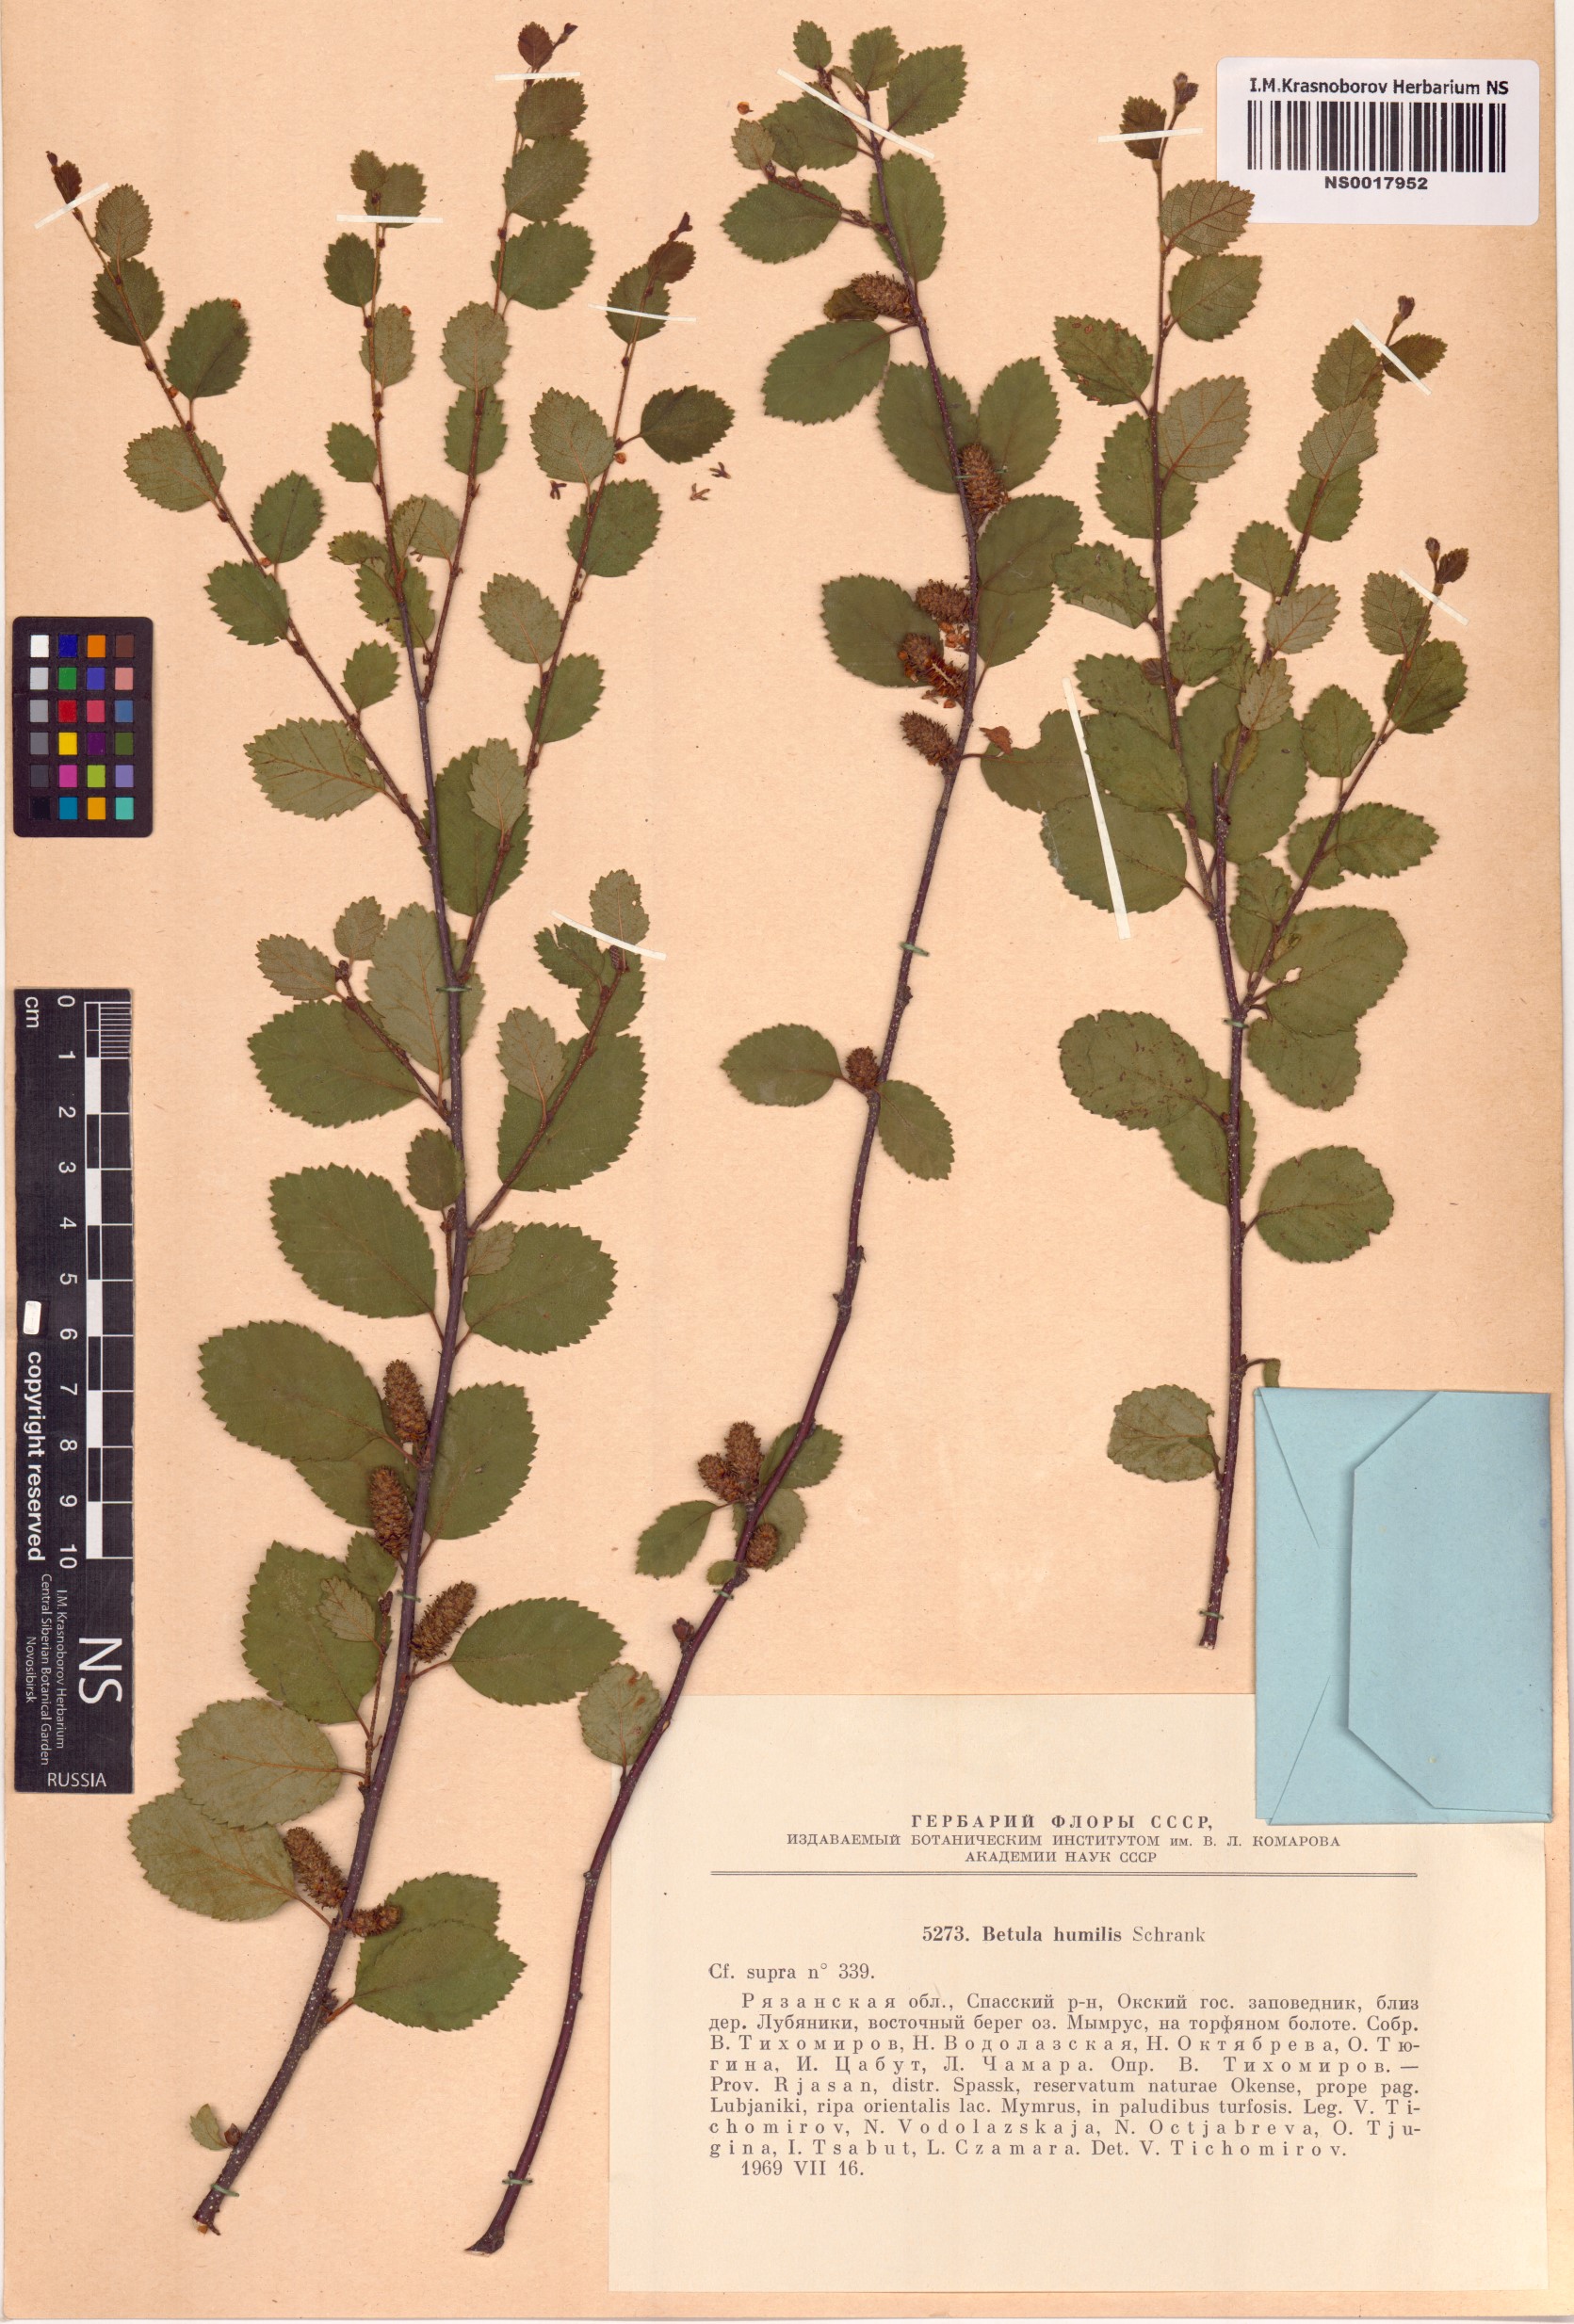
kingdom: Plantae
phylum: Tracheophyta
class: Magnoliopsida
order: Fagales
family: Betulaceae
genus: Betula
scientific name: Betula humilis
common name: Shrubby birch
